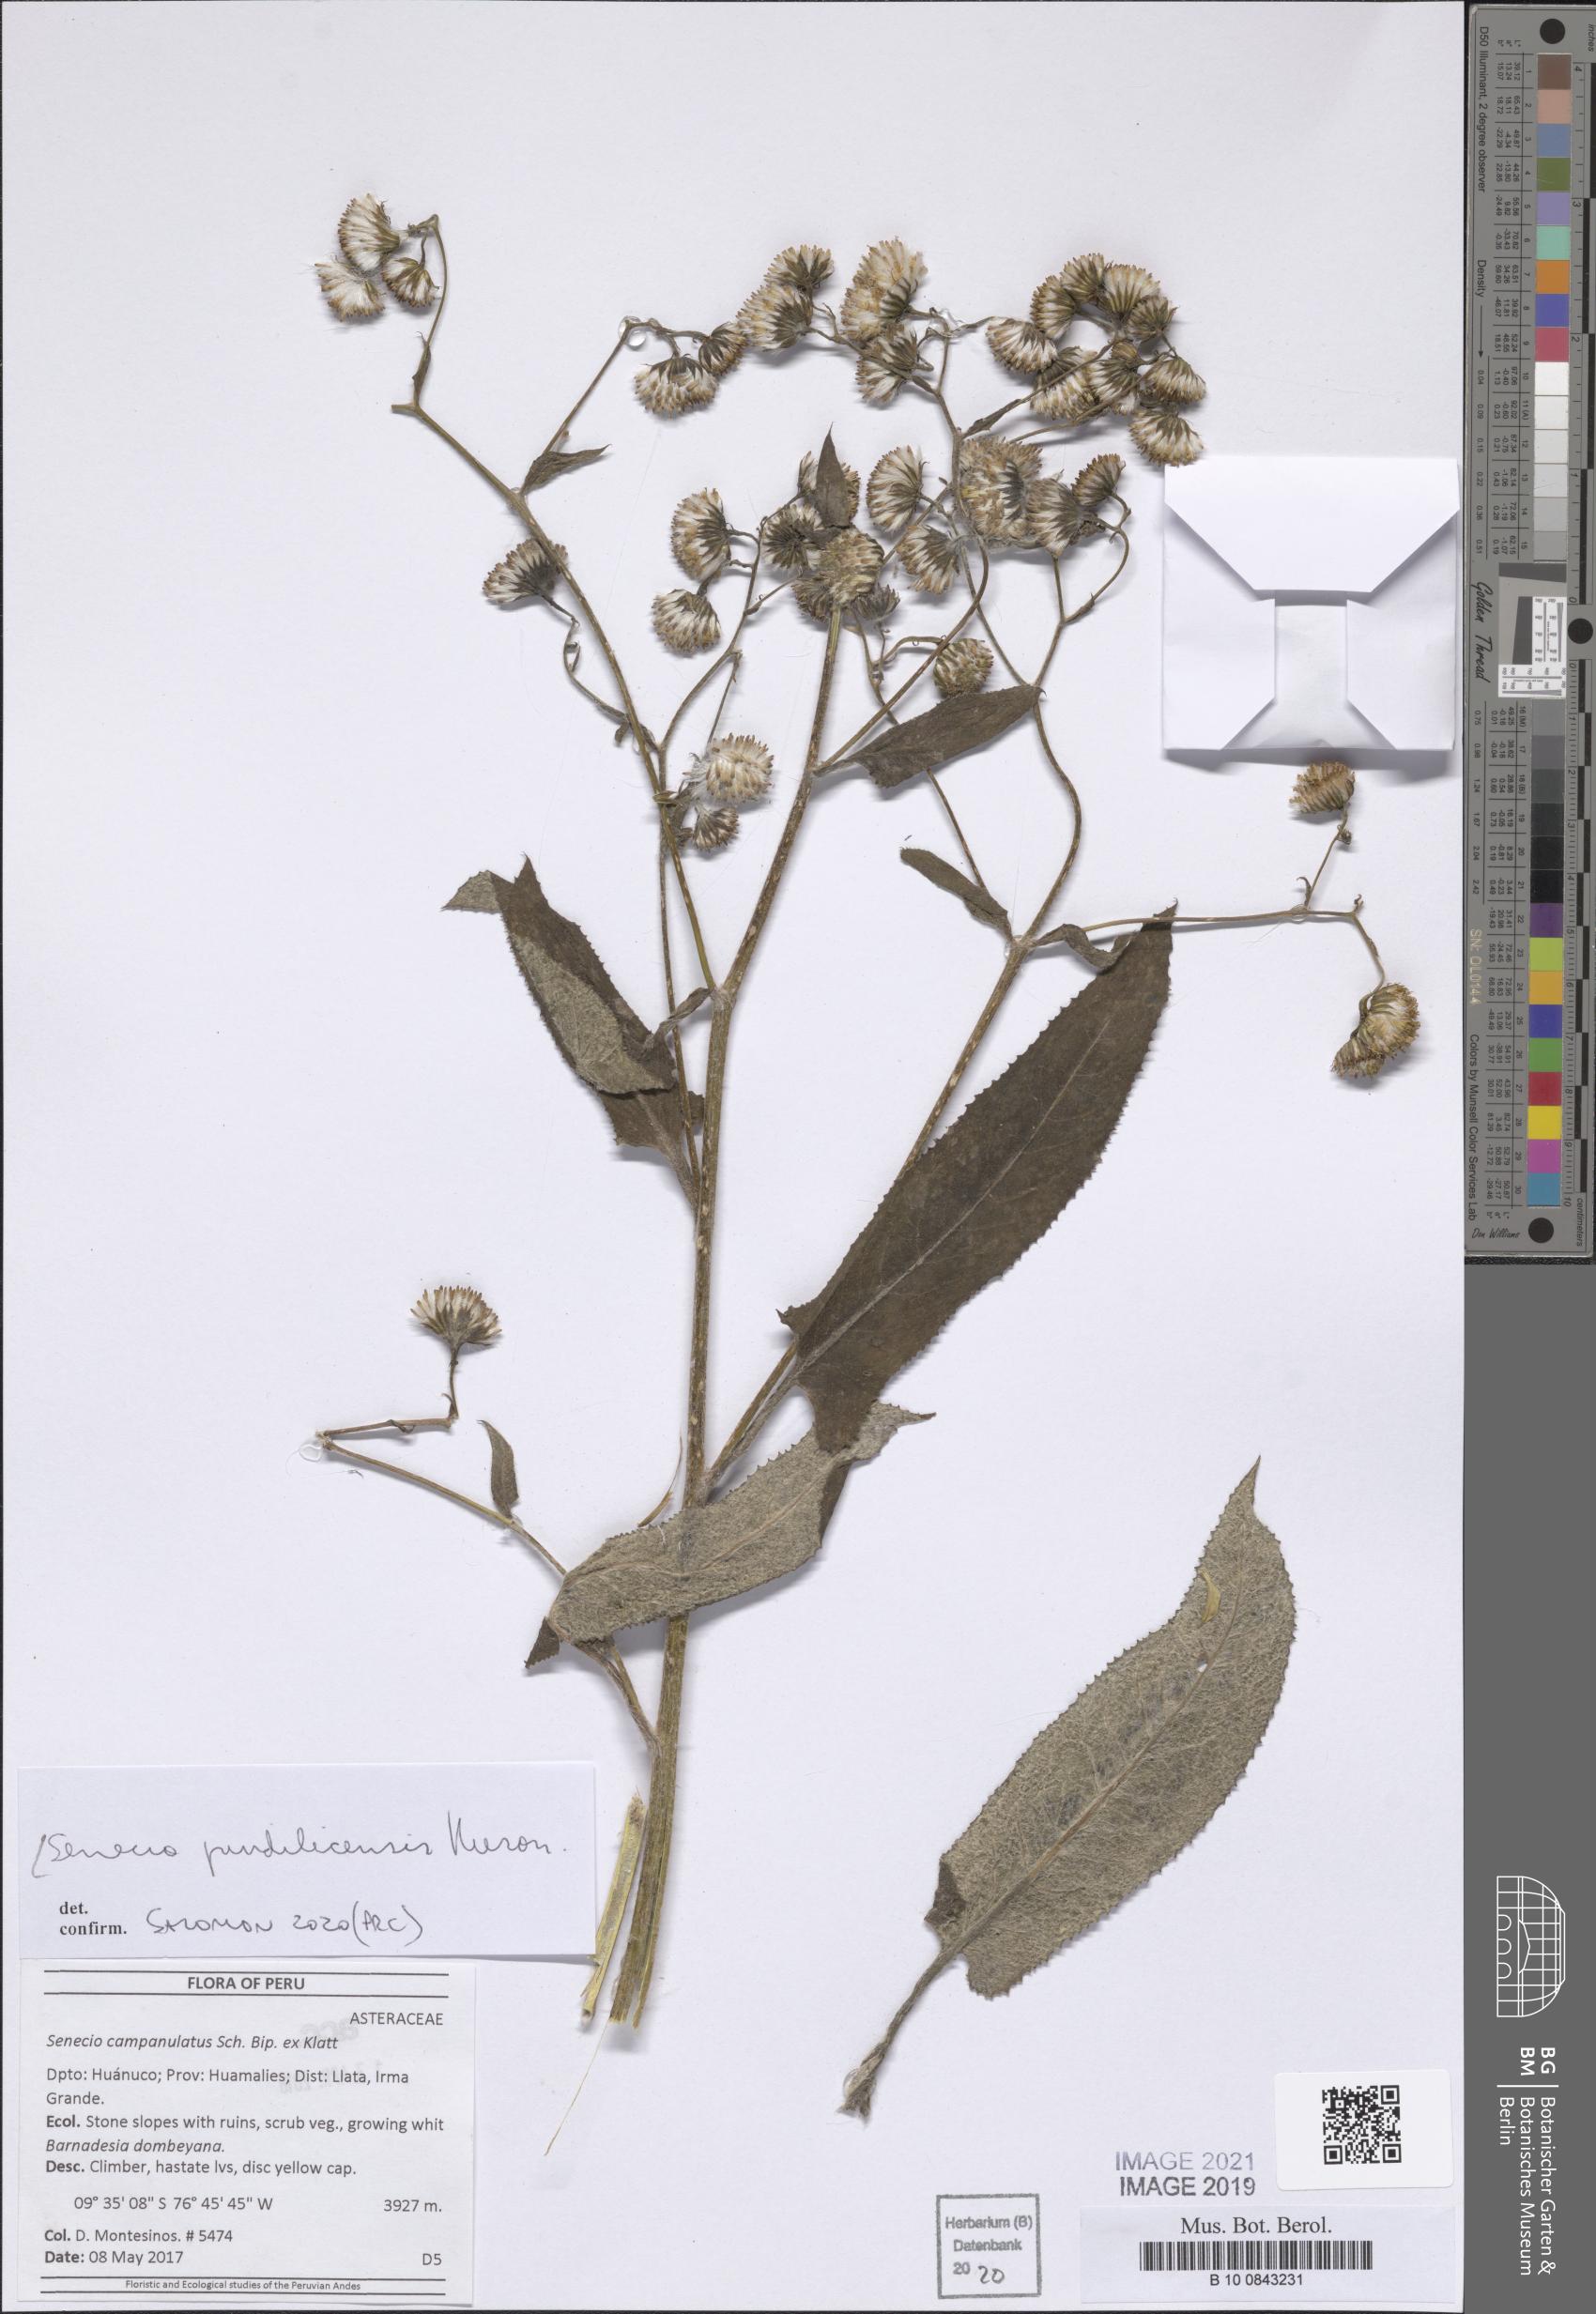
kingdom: Plantae
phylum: Tracheophyta
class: Magnoliopsida
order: Asterales
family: Asteraceae
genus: Aetheolaena
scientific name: Aetheolaena heterophylla
